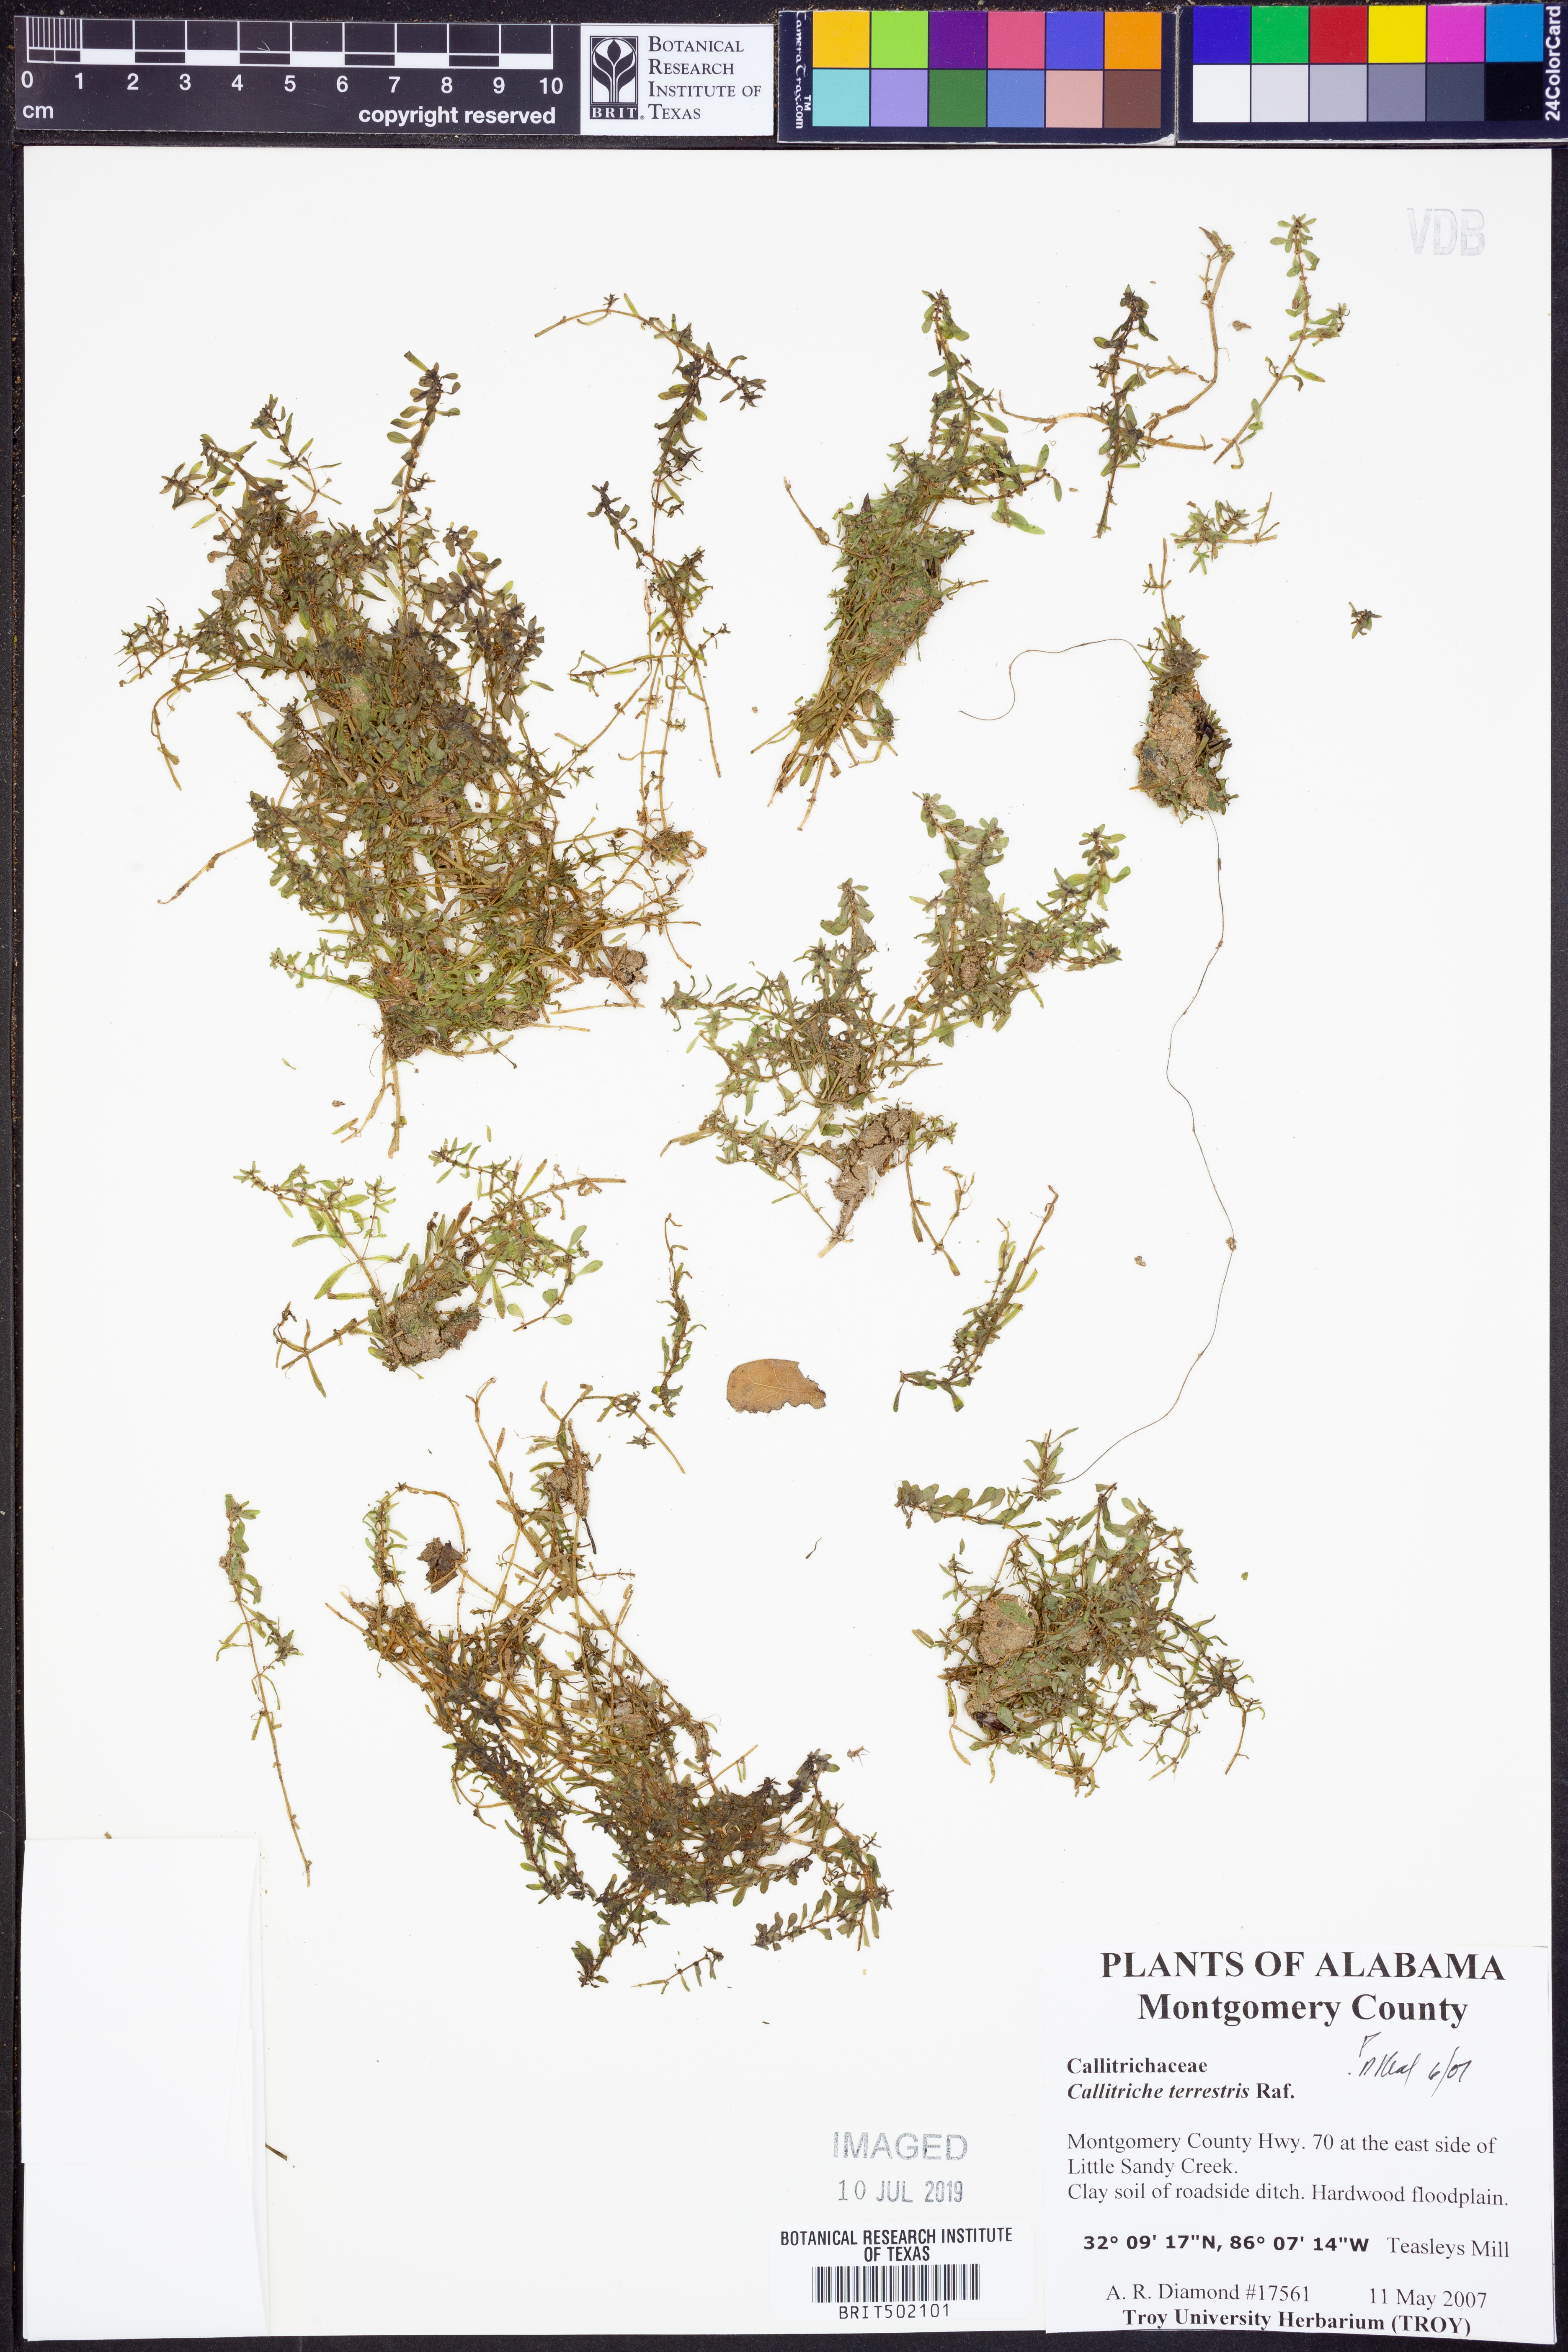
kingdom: Plantae
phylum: Tracheophyta
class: Magnoliopsida
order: Lamiales
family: Plantaginaceae
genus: Callitriche
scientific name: Callitriche terrestris
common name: Terrestrial water-starwort
